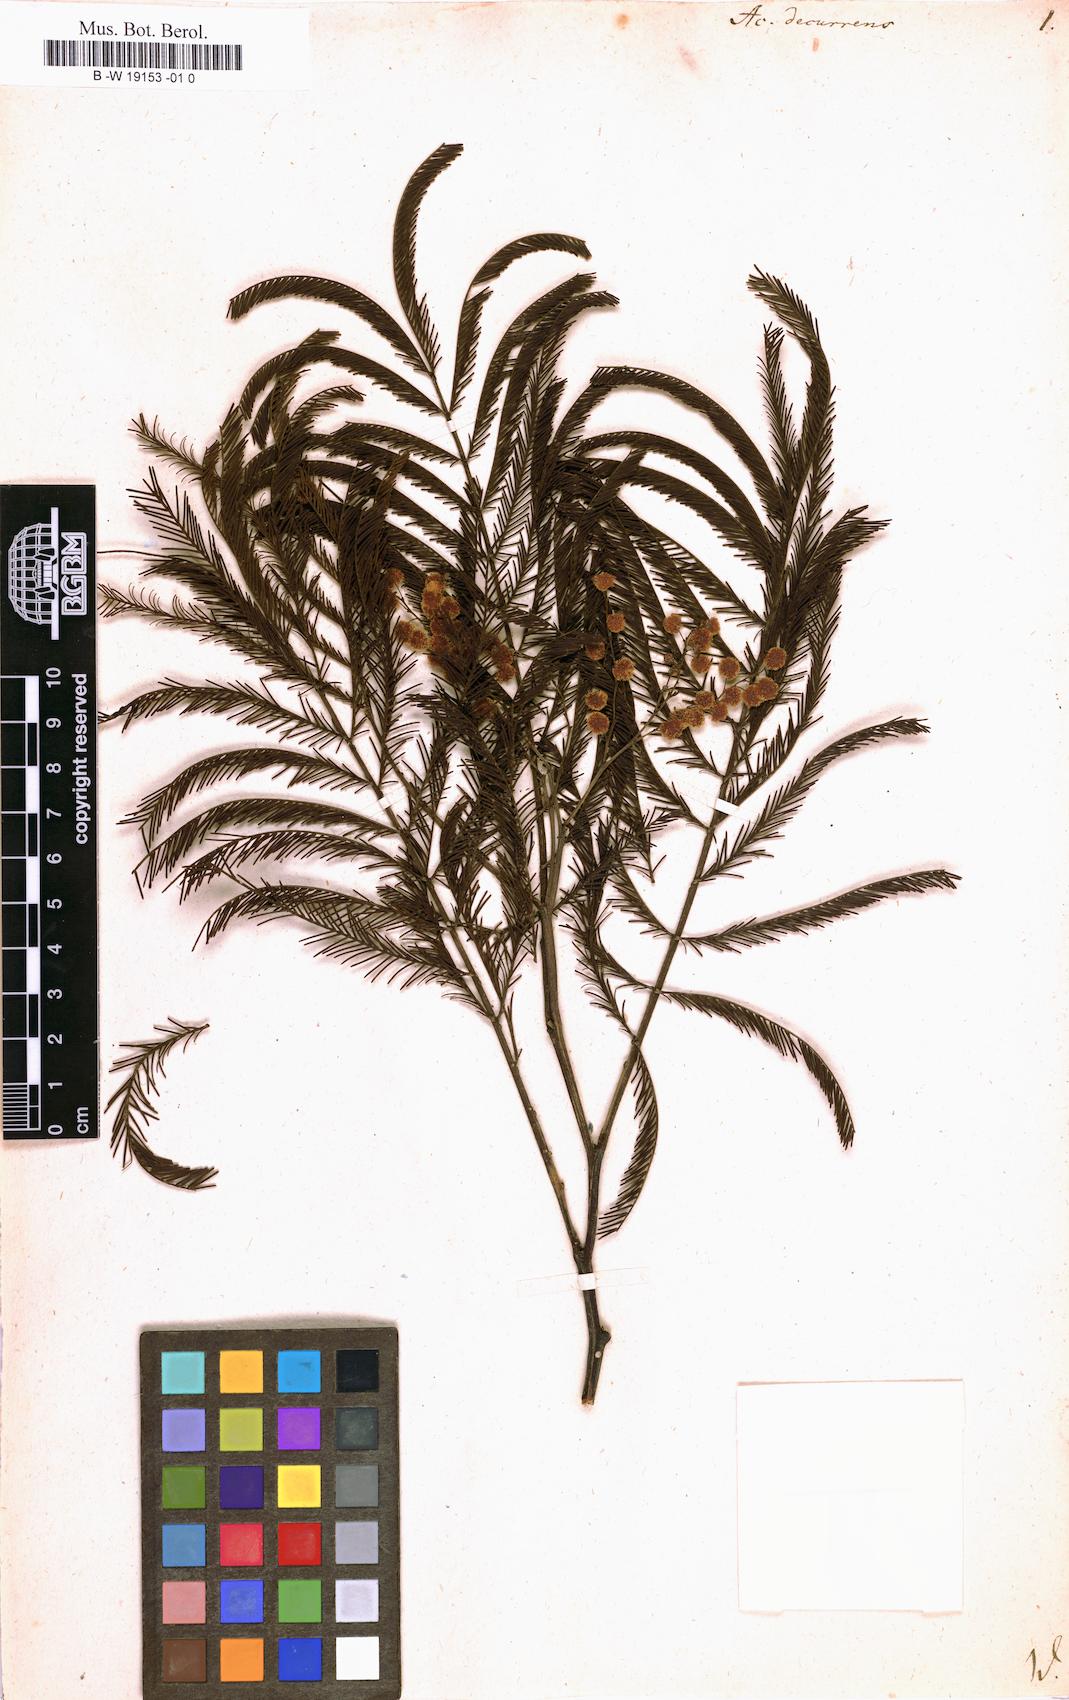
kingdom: Plantae
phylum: Tracheophyta
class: Magnoliopsida
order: Fabales
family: Fabaceae
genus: Acacia
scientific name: Acacia decurrens
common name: Green wattle
